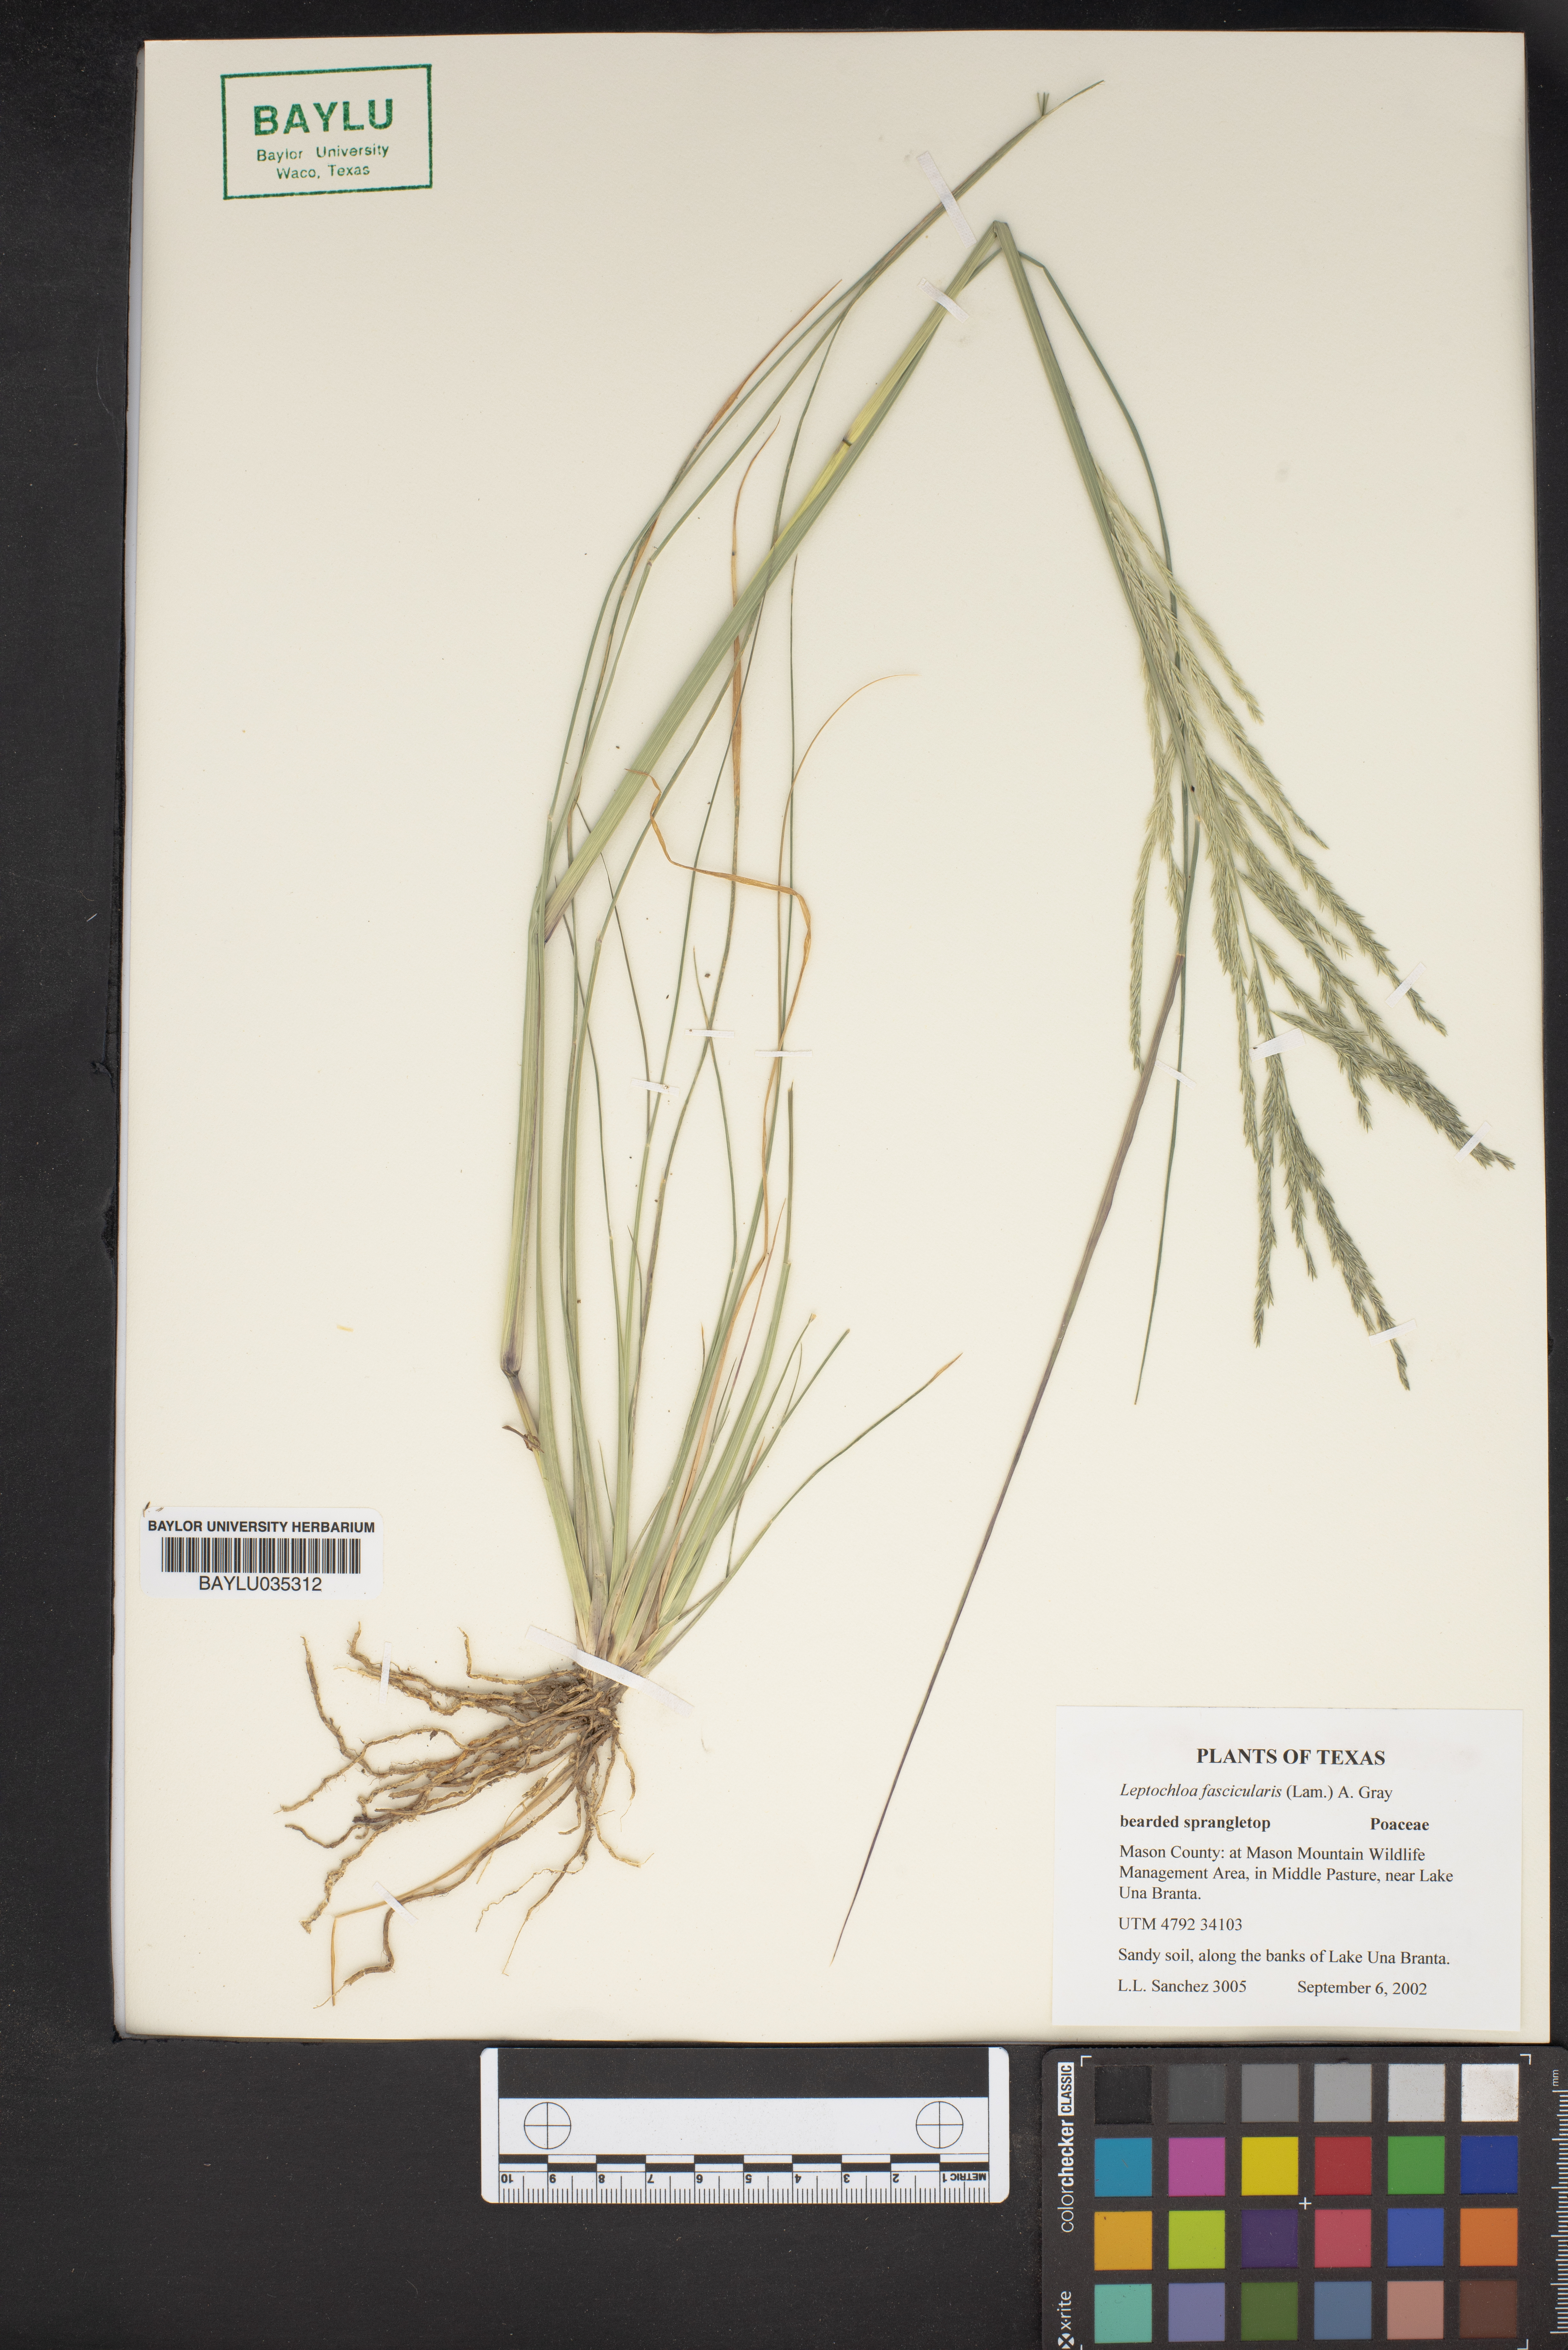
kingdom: Plantae
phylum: Tracheophyta
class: Liliopsida
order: Poales
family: Poaceae
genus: Diplachne
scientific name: Diplachne fusca
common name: Brown beetle grass
